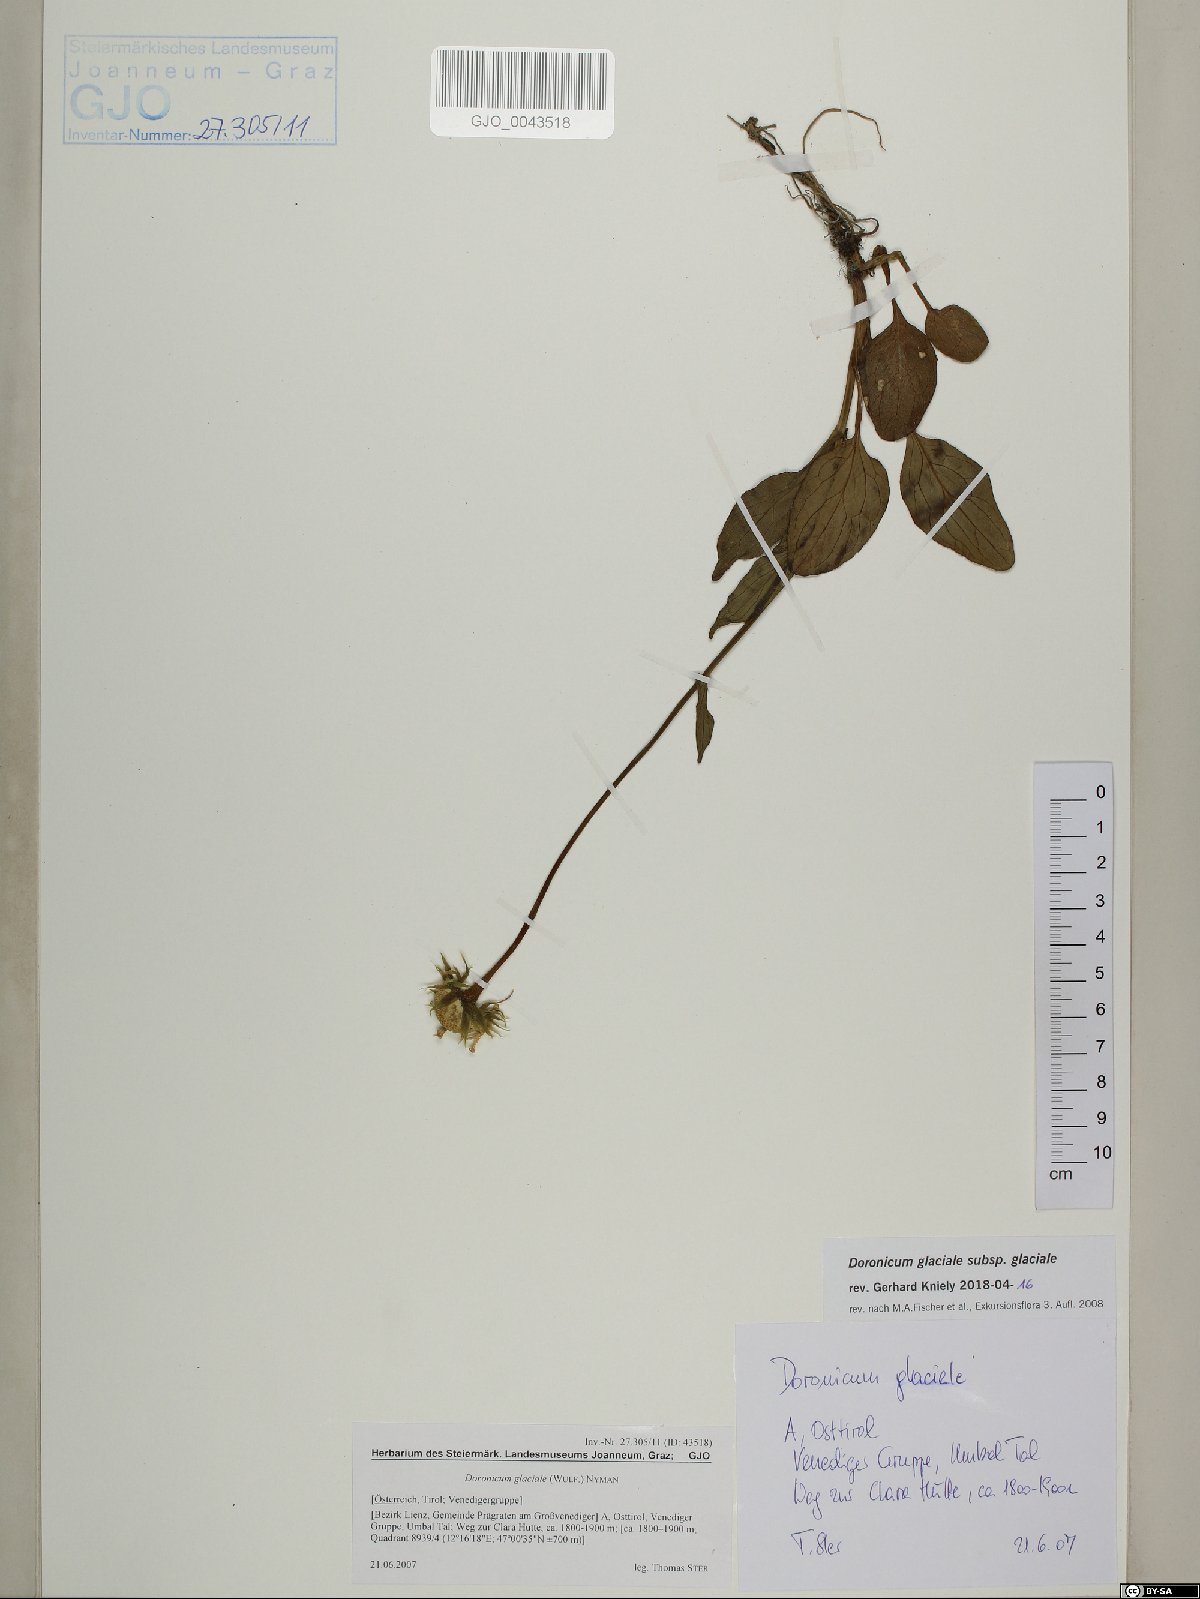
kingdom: Plantae
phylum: Tracheophyta
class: Magnoliopsida
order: Asterales
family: Asteraceae
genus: Doronicum
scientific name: Doronicum glaciale
